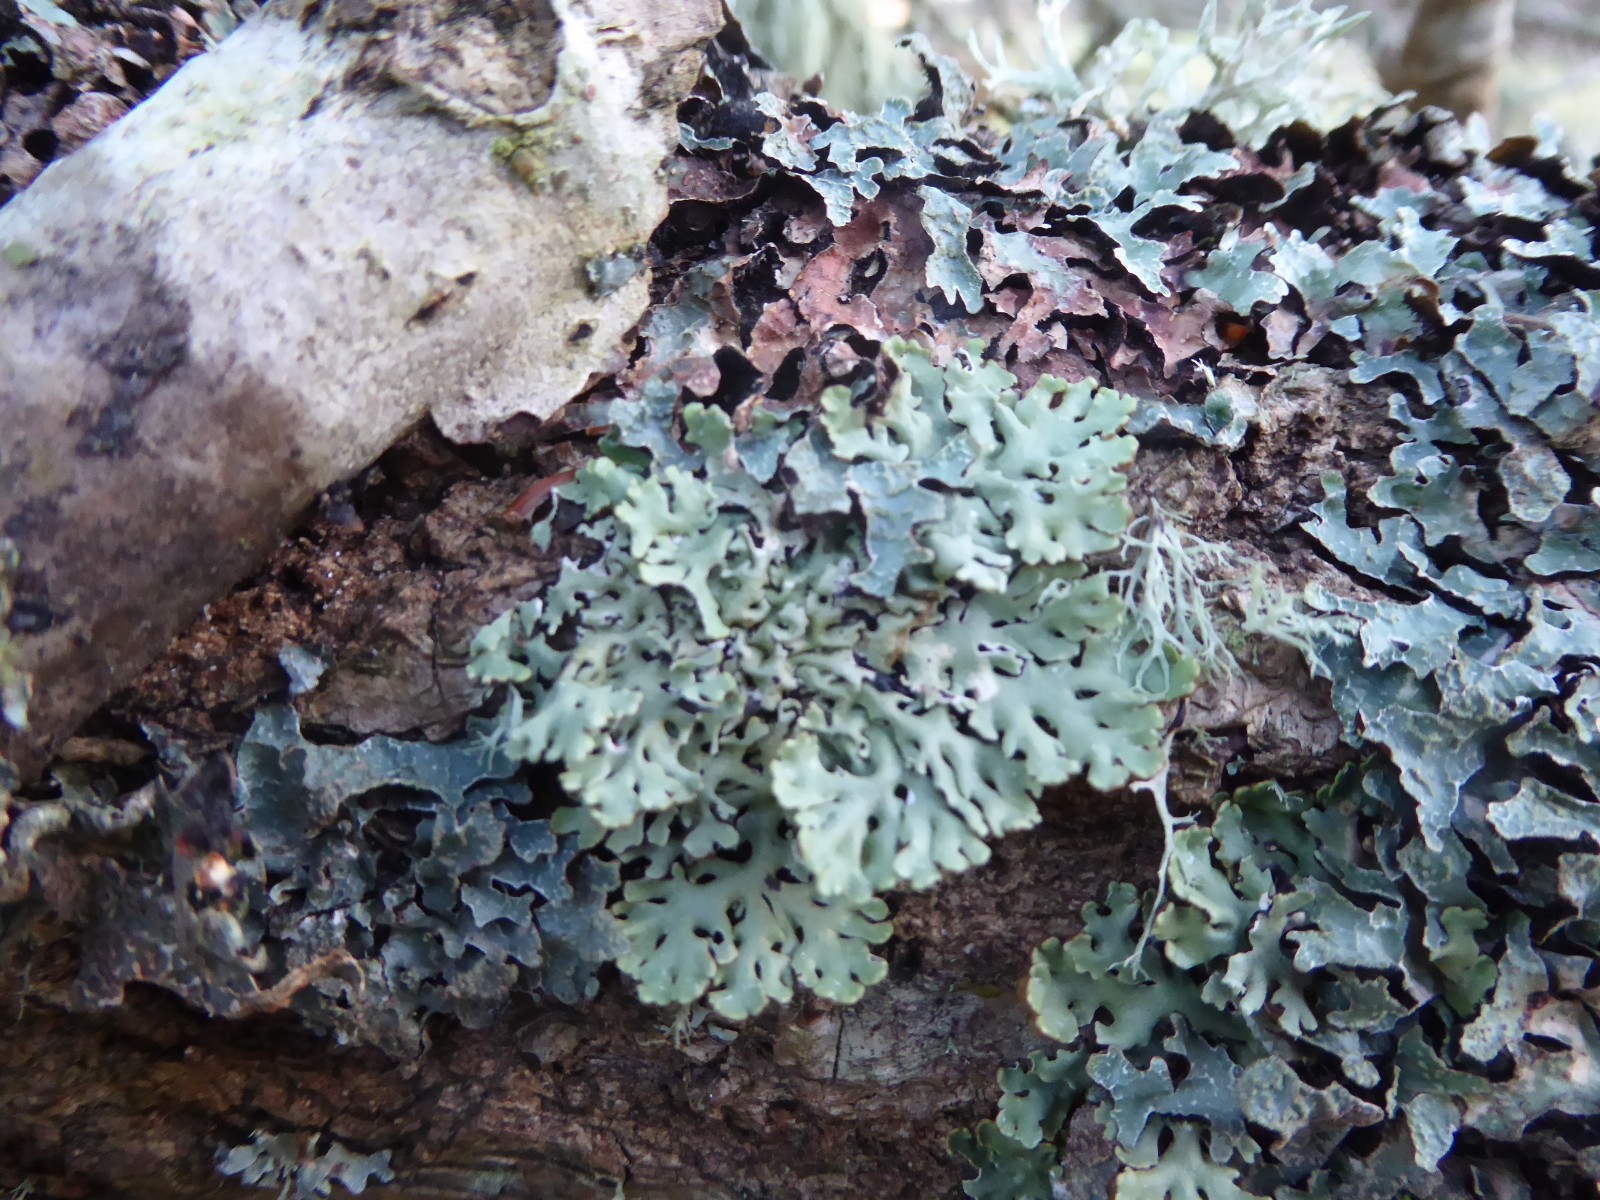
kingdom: Fungi
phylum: Ascomycota
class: Lecanoromycetes
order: Lecanorales
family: Parmeliaceae
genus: Hypogymnia
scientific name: Hypogymnia physodes
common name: almindelig kvistlav
